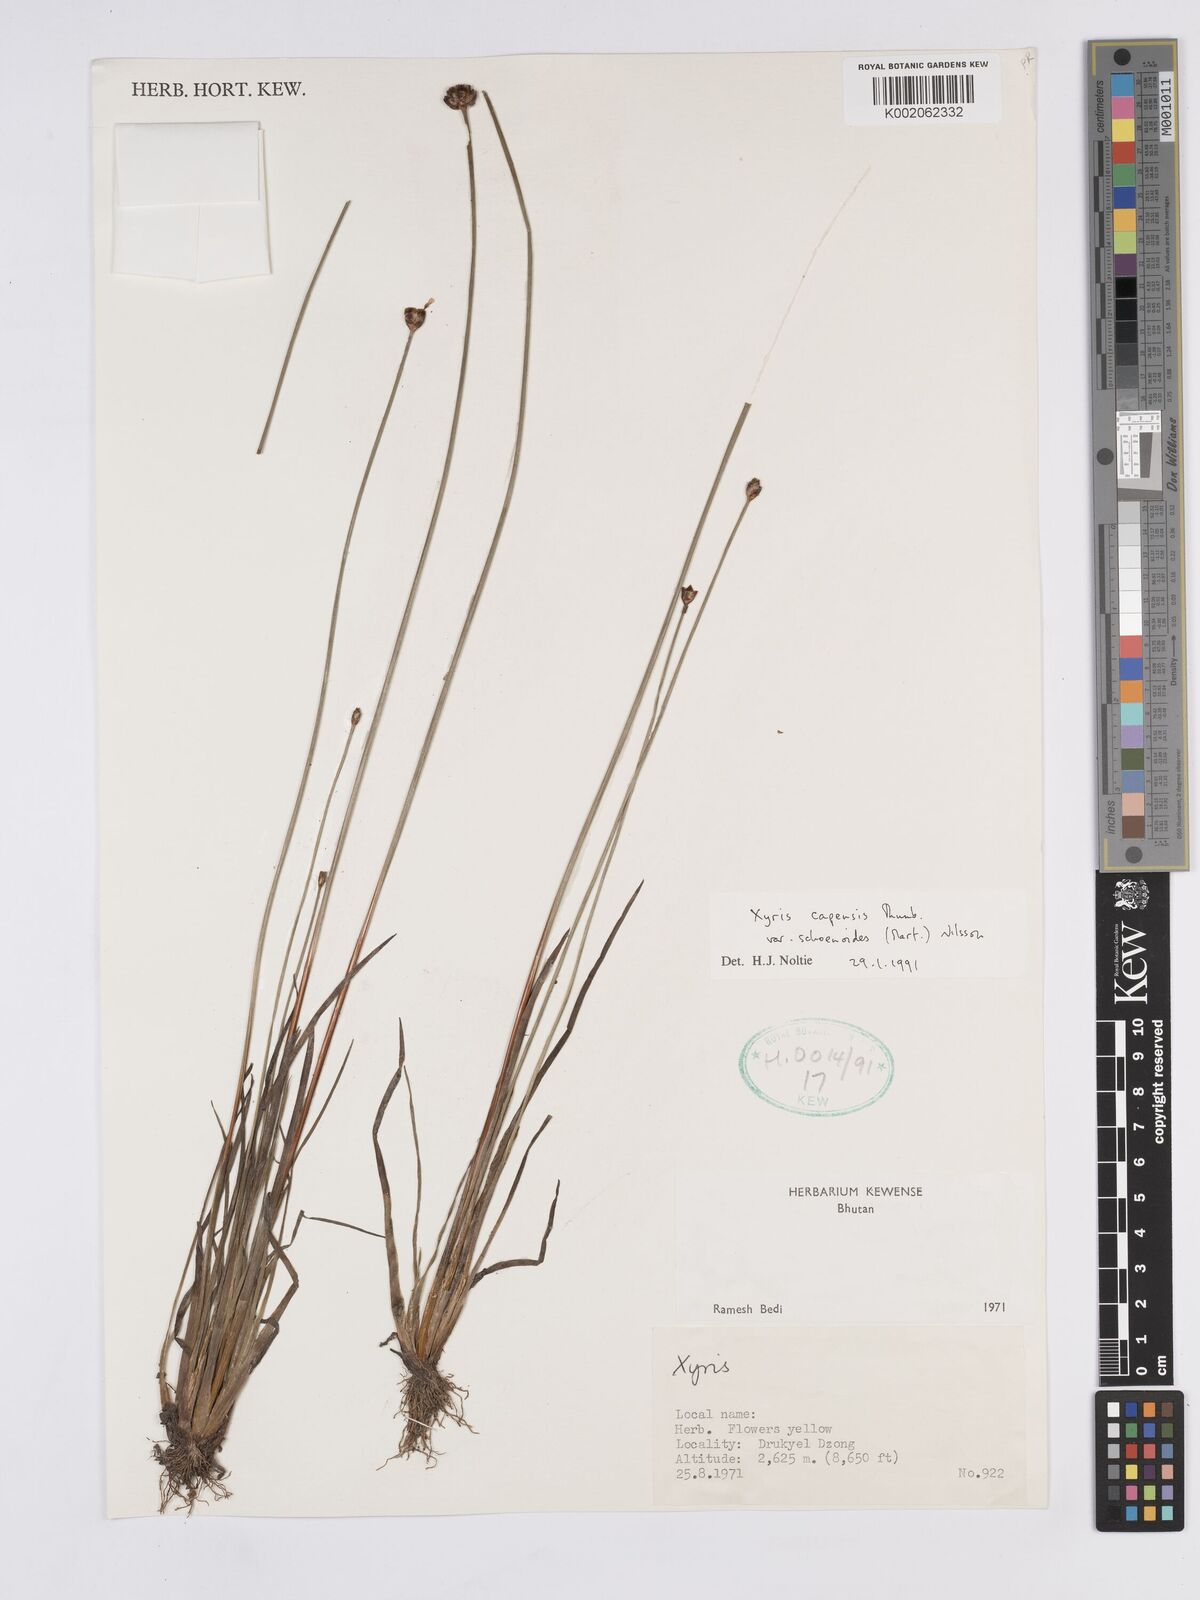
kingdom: Plantae
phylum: Tracheophyta
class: Liliopsida
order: Poales
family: Xyridaceae
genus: Xyris
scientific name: Xyris capensis
